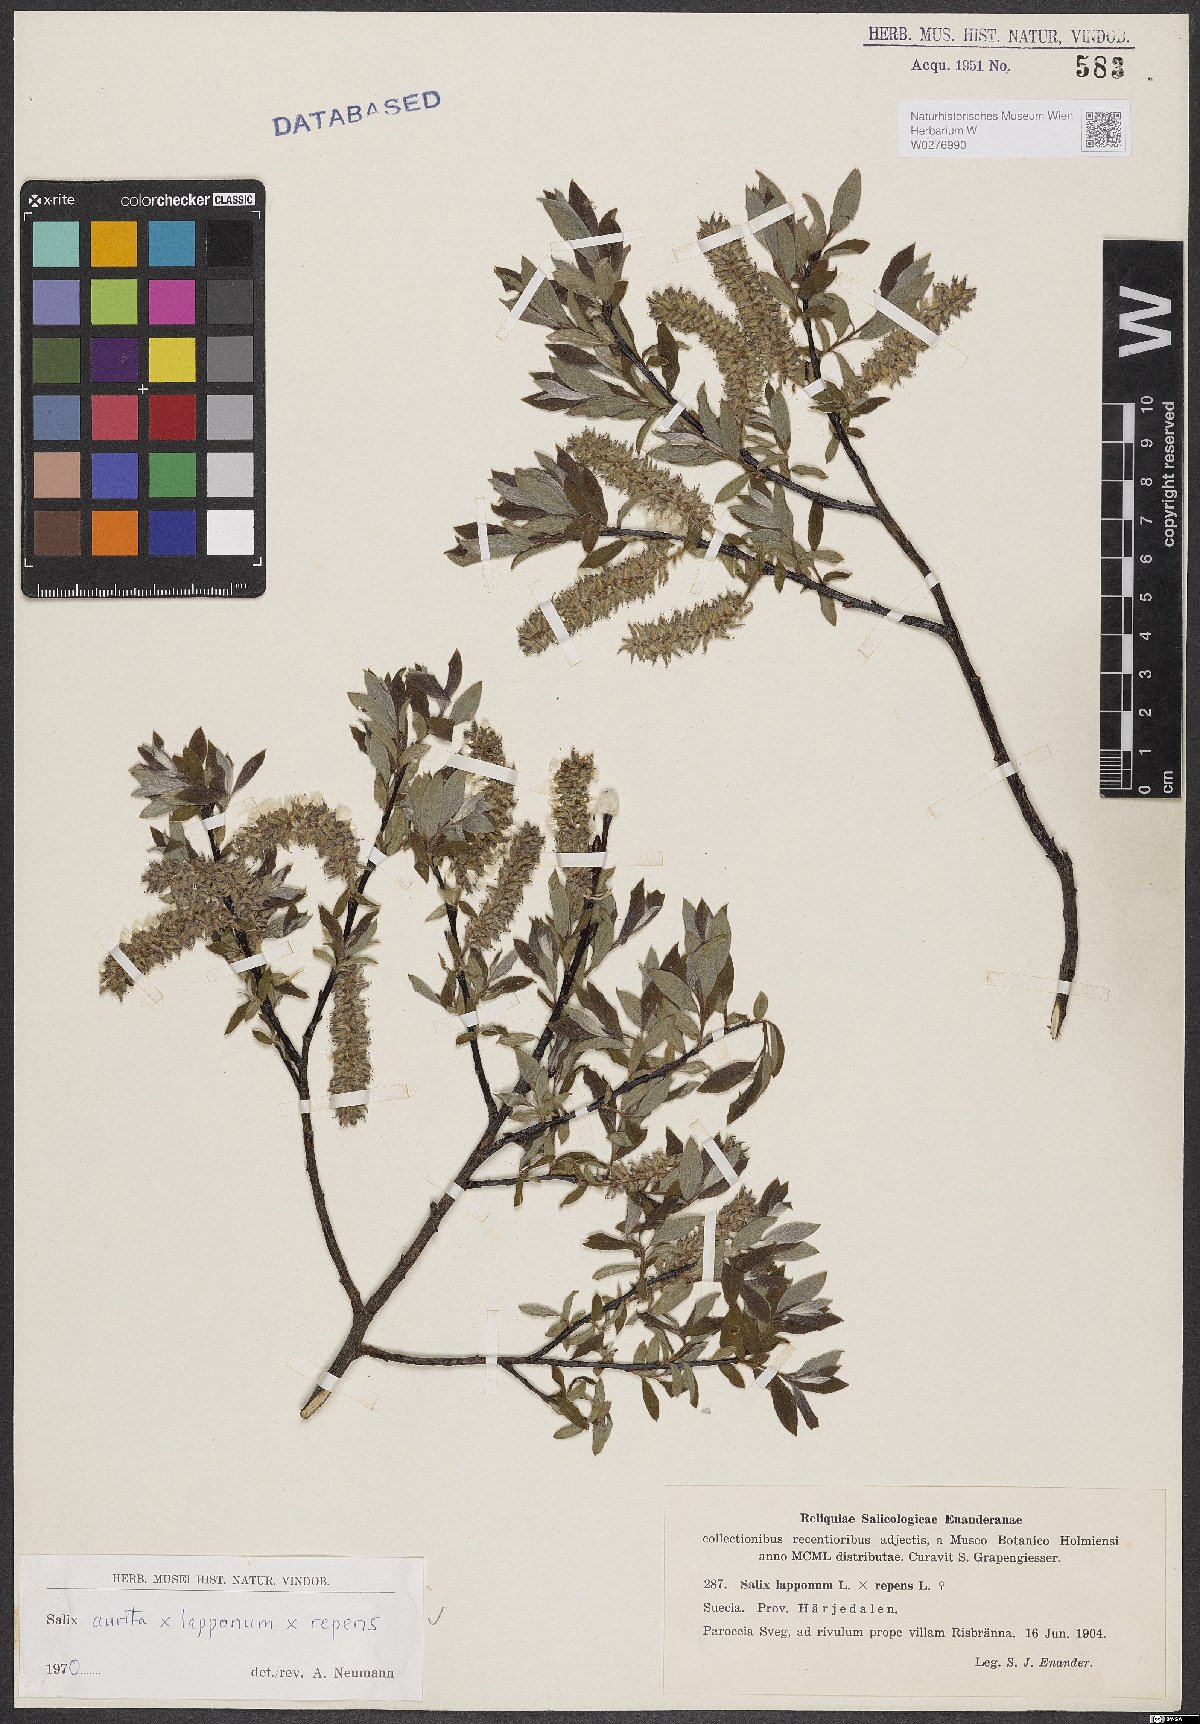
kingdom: Plantae
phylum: Tracheophyta
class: Magnoliopsida
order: Malpighiales
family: Salicaceae
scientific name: Salicaceae
